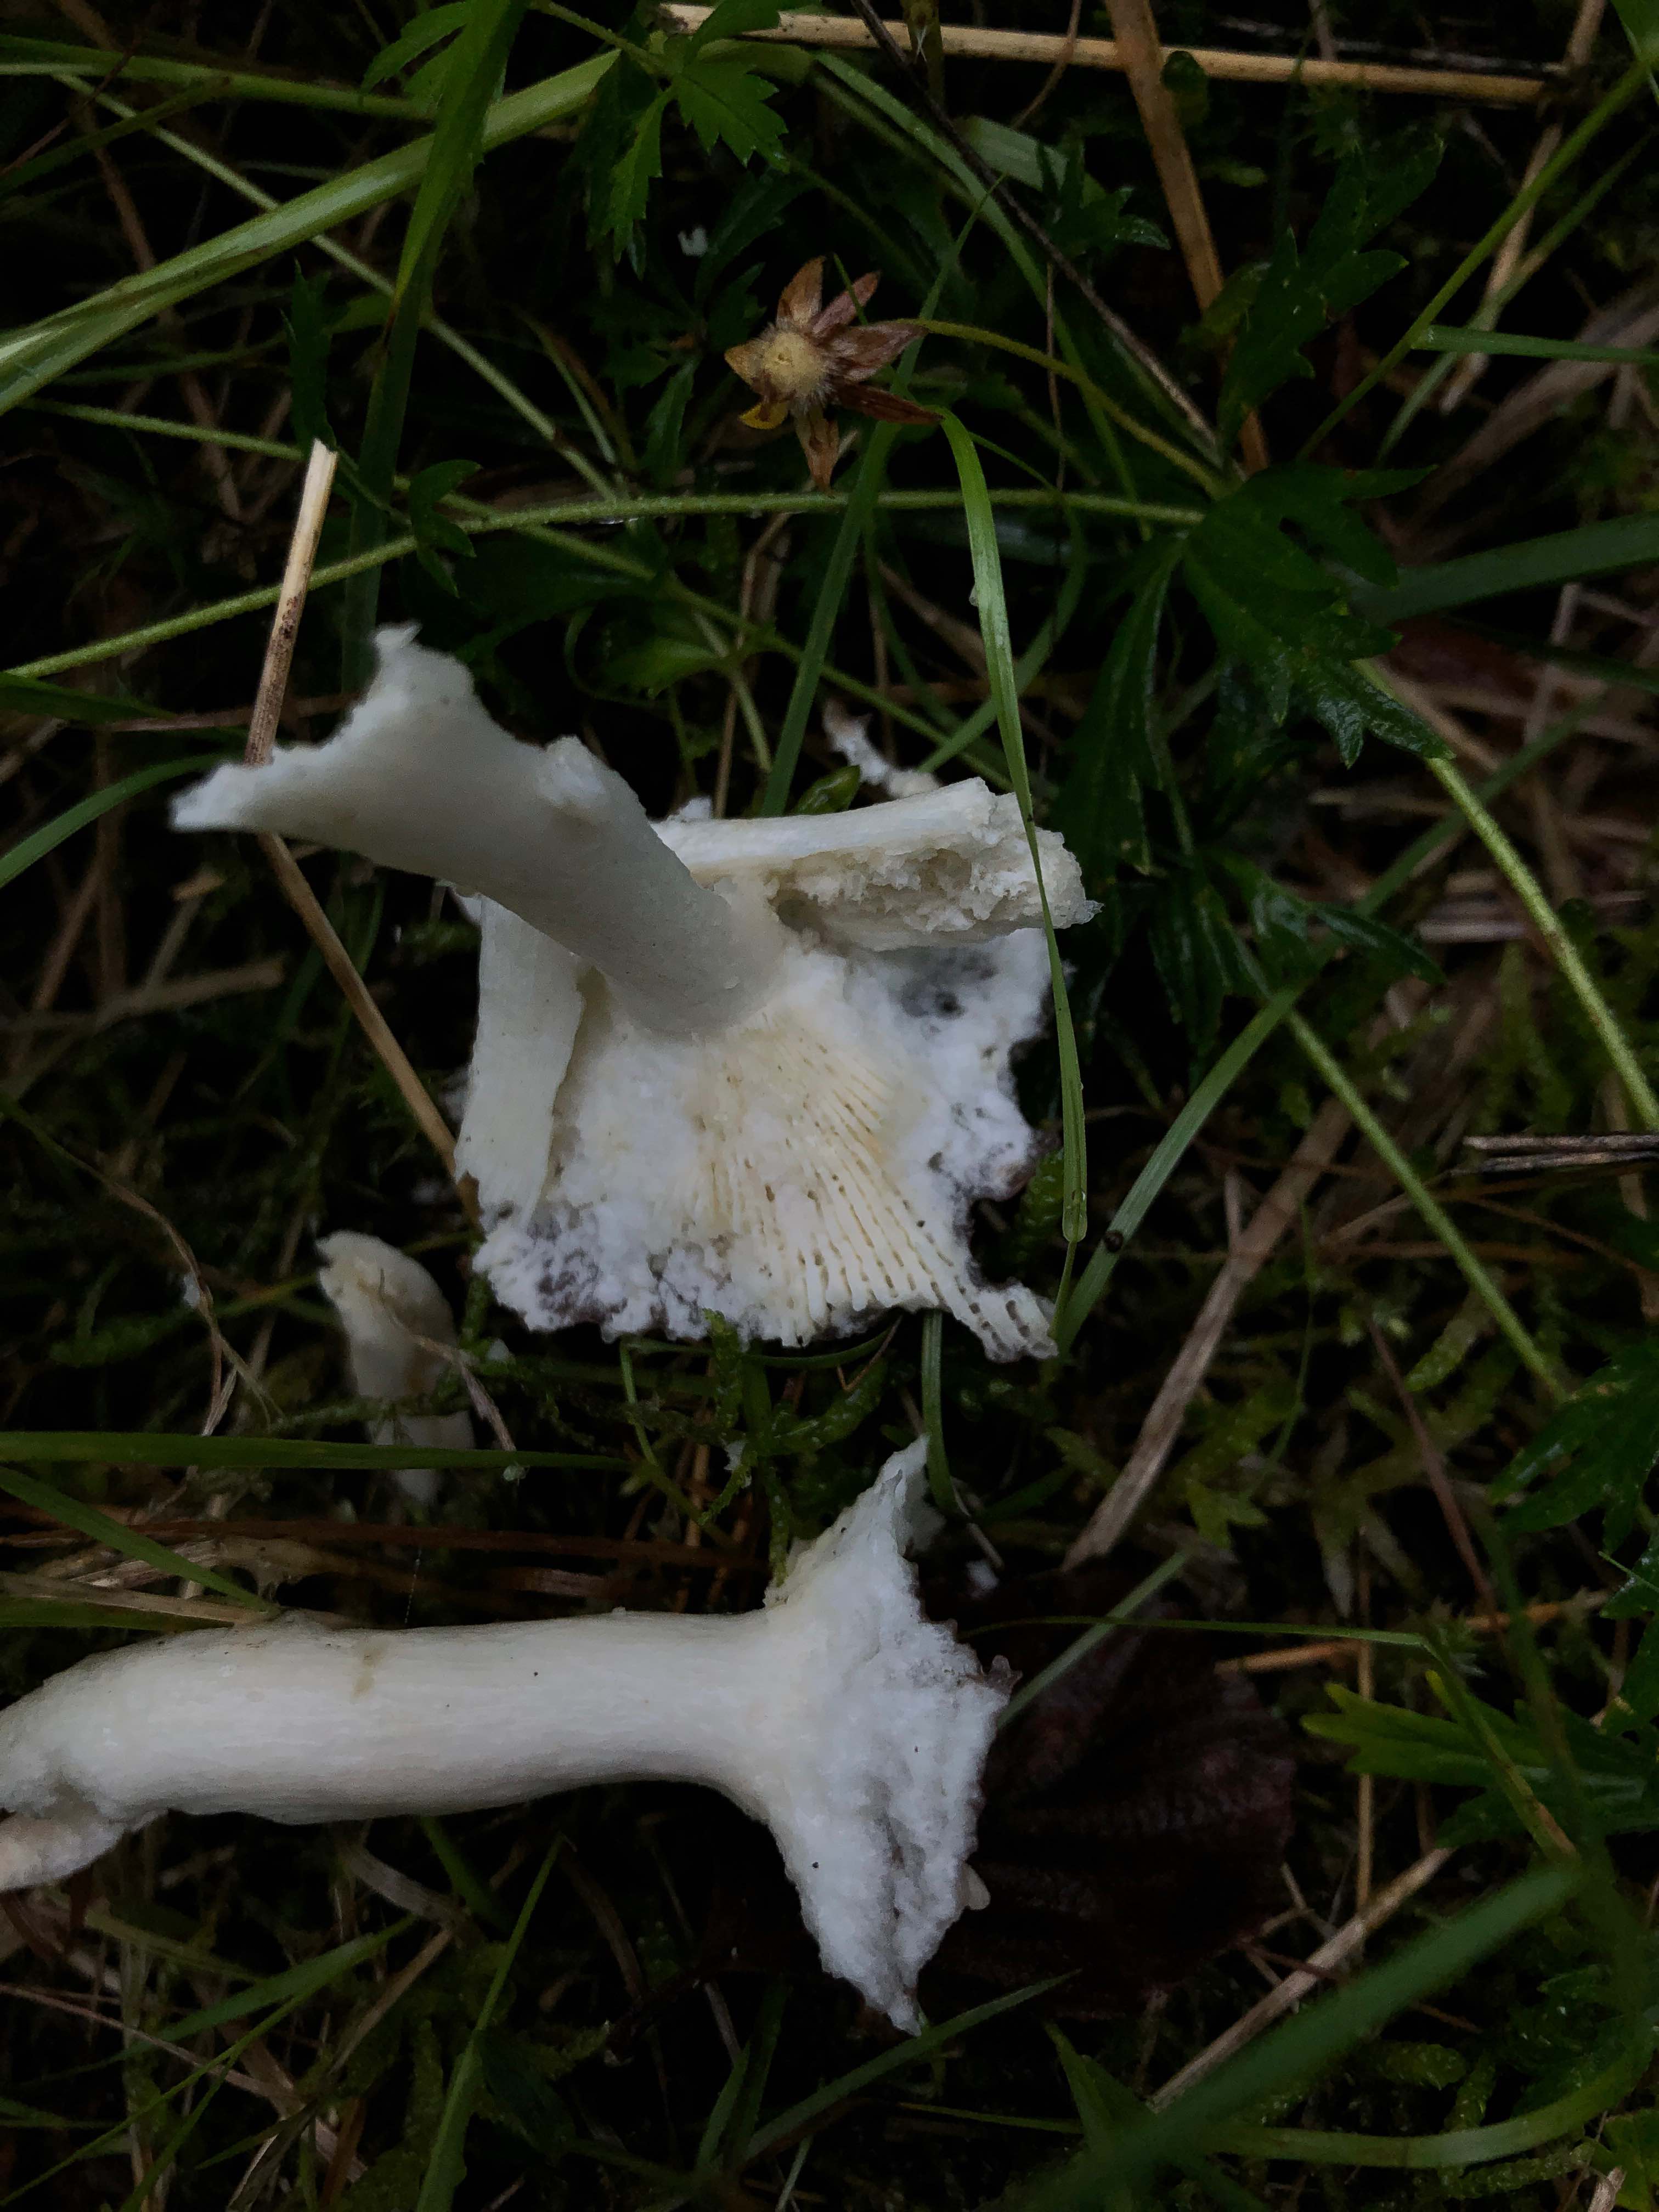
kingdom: Fungi
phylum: Basidiomycota
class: Agaricomycetes
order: Russulales
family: Russulaceae
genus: Russula
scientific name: Russula versicolor
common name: foranderlig skørhat
